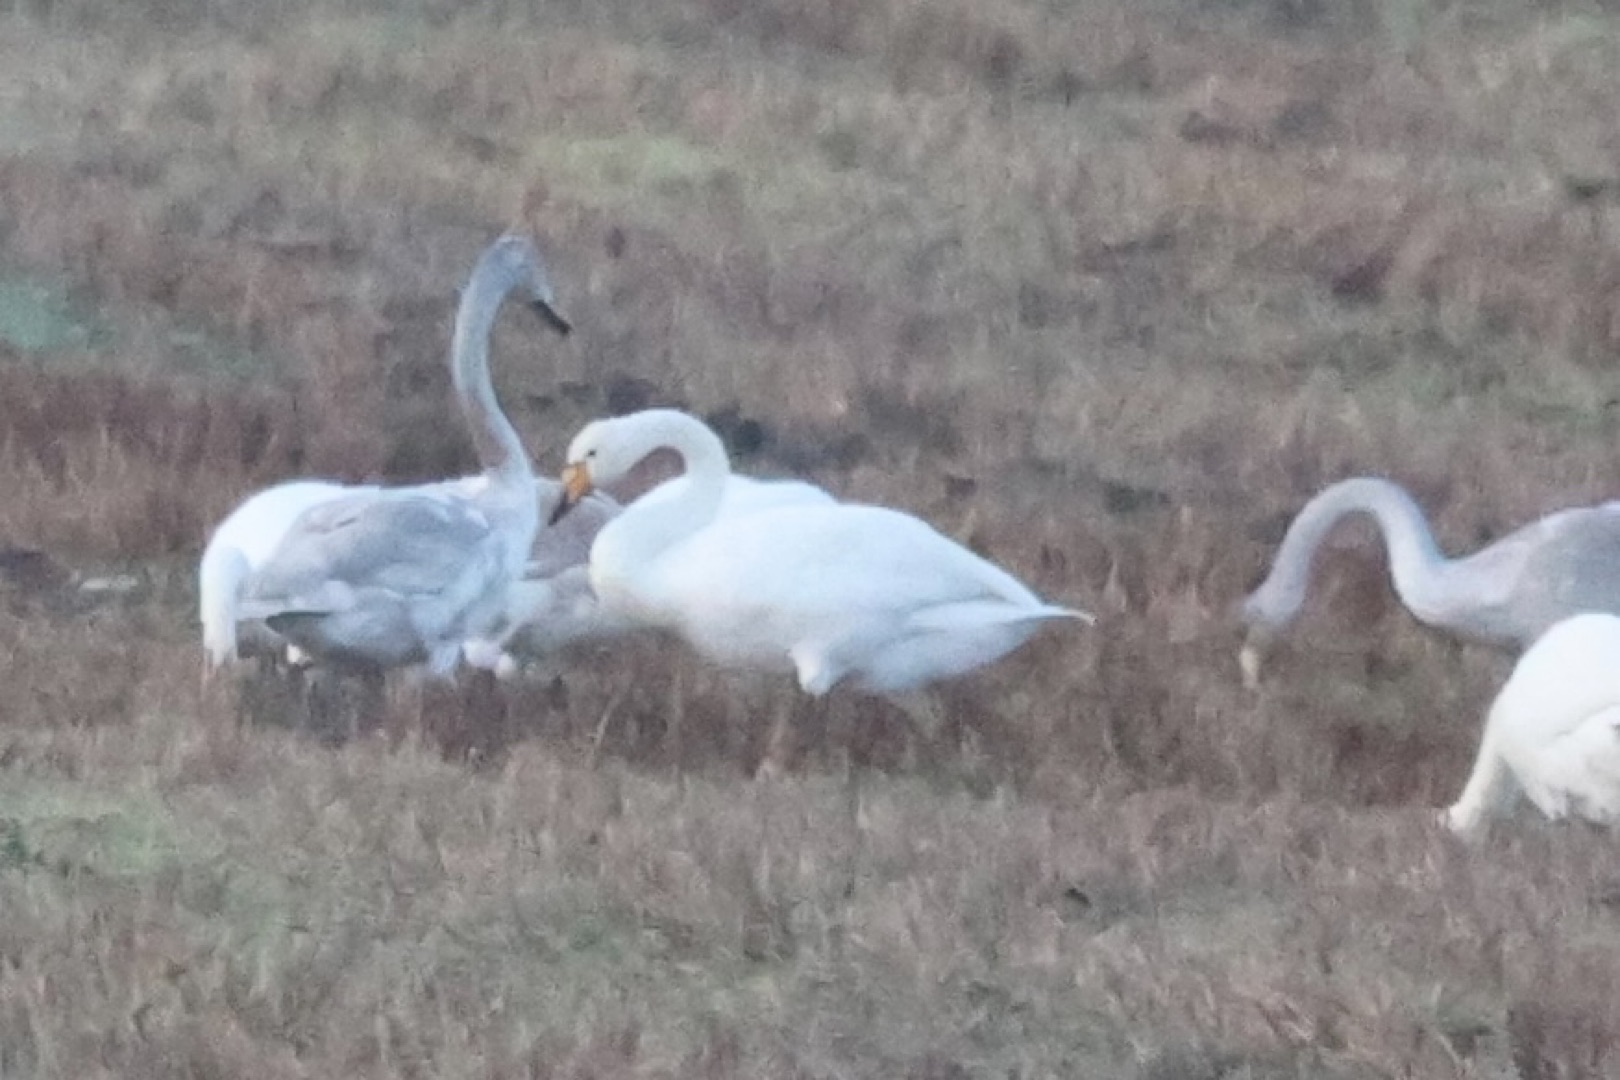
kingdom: Animalia
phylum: Chordata
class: Aves
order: Anseriformes
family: Anatidae
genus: Cygnus
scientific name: Cygnus cygnus
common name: Sangsvane
